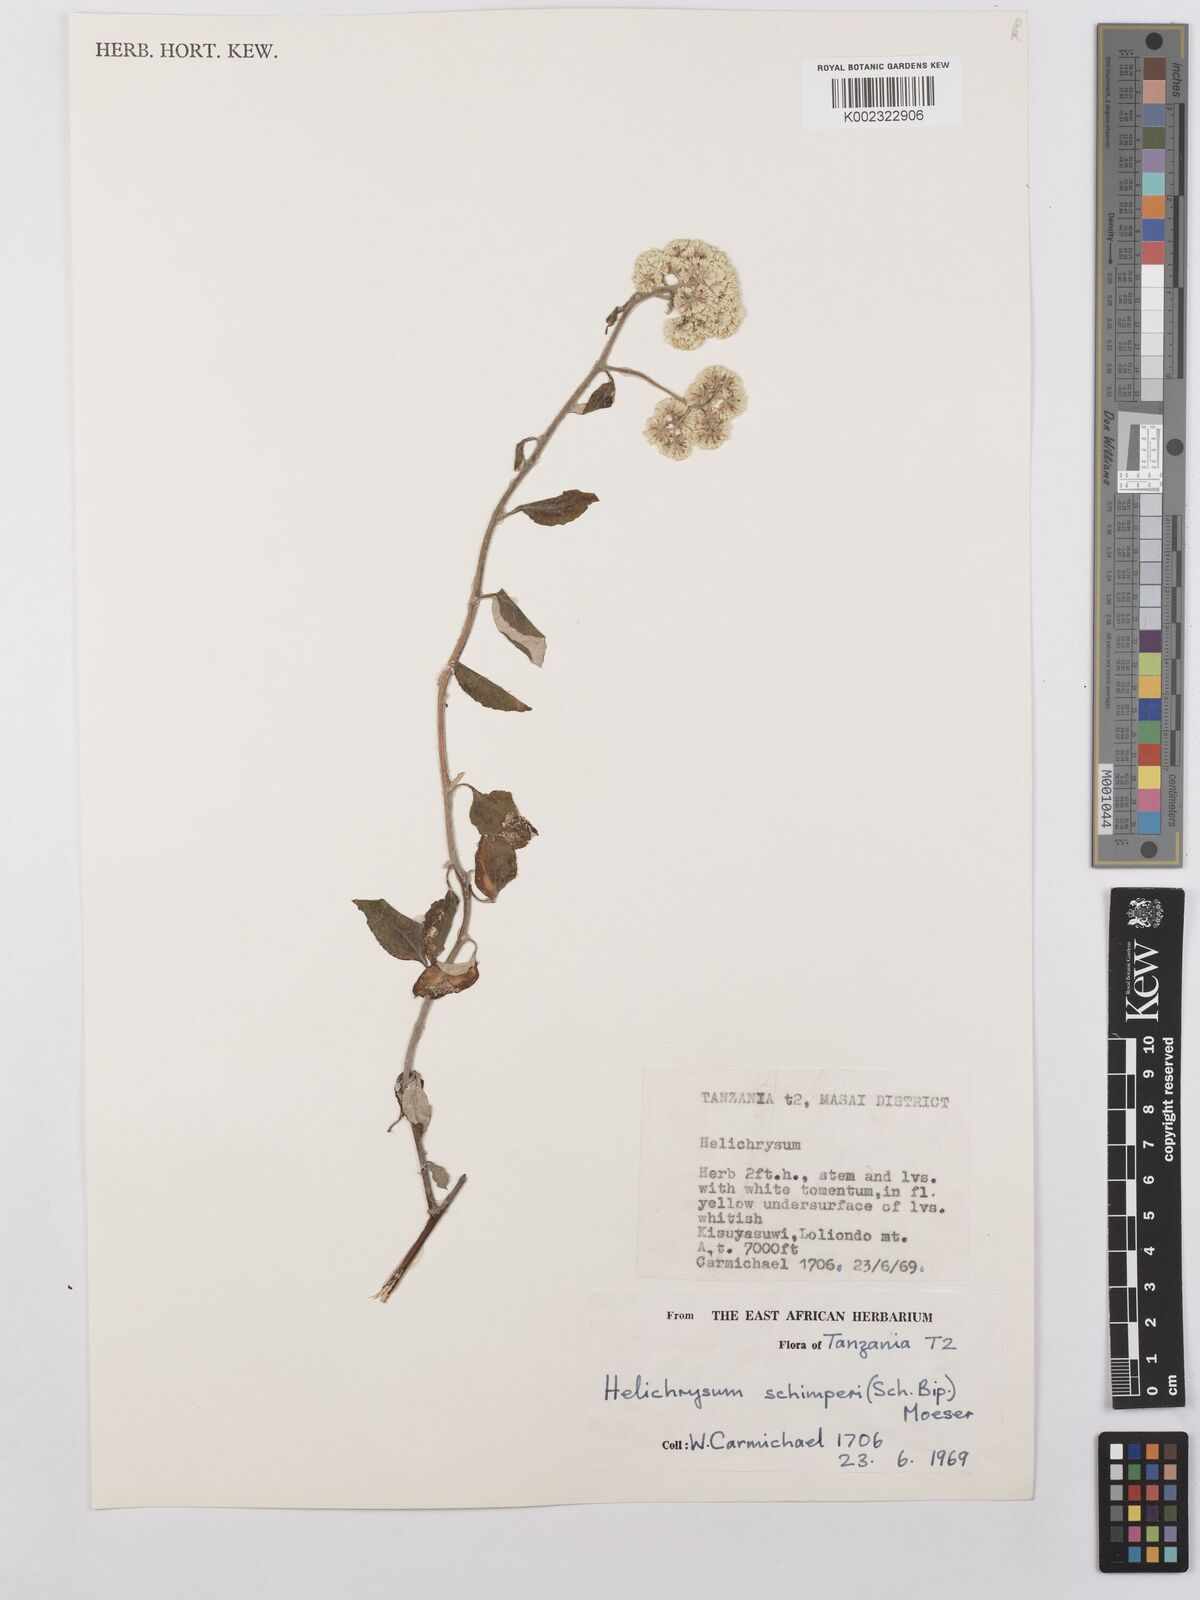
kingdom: Plantae
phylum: Tracheophyta
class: Magnoliopsida
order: Asterales
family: Asteraceae
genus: Helichrysum
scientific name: Helichrysum schimperi
